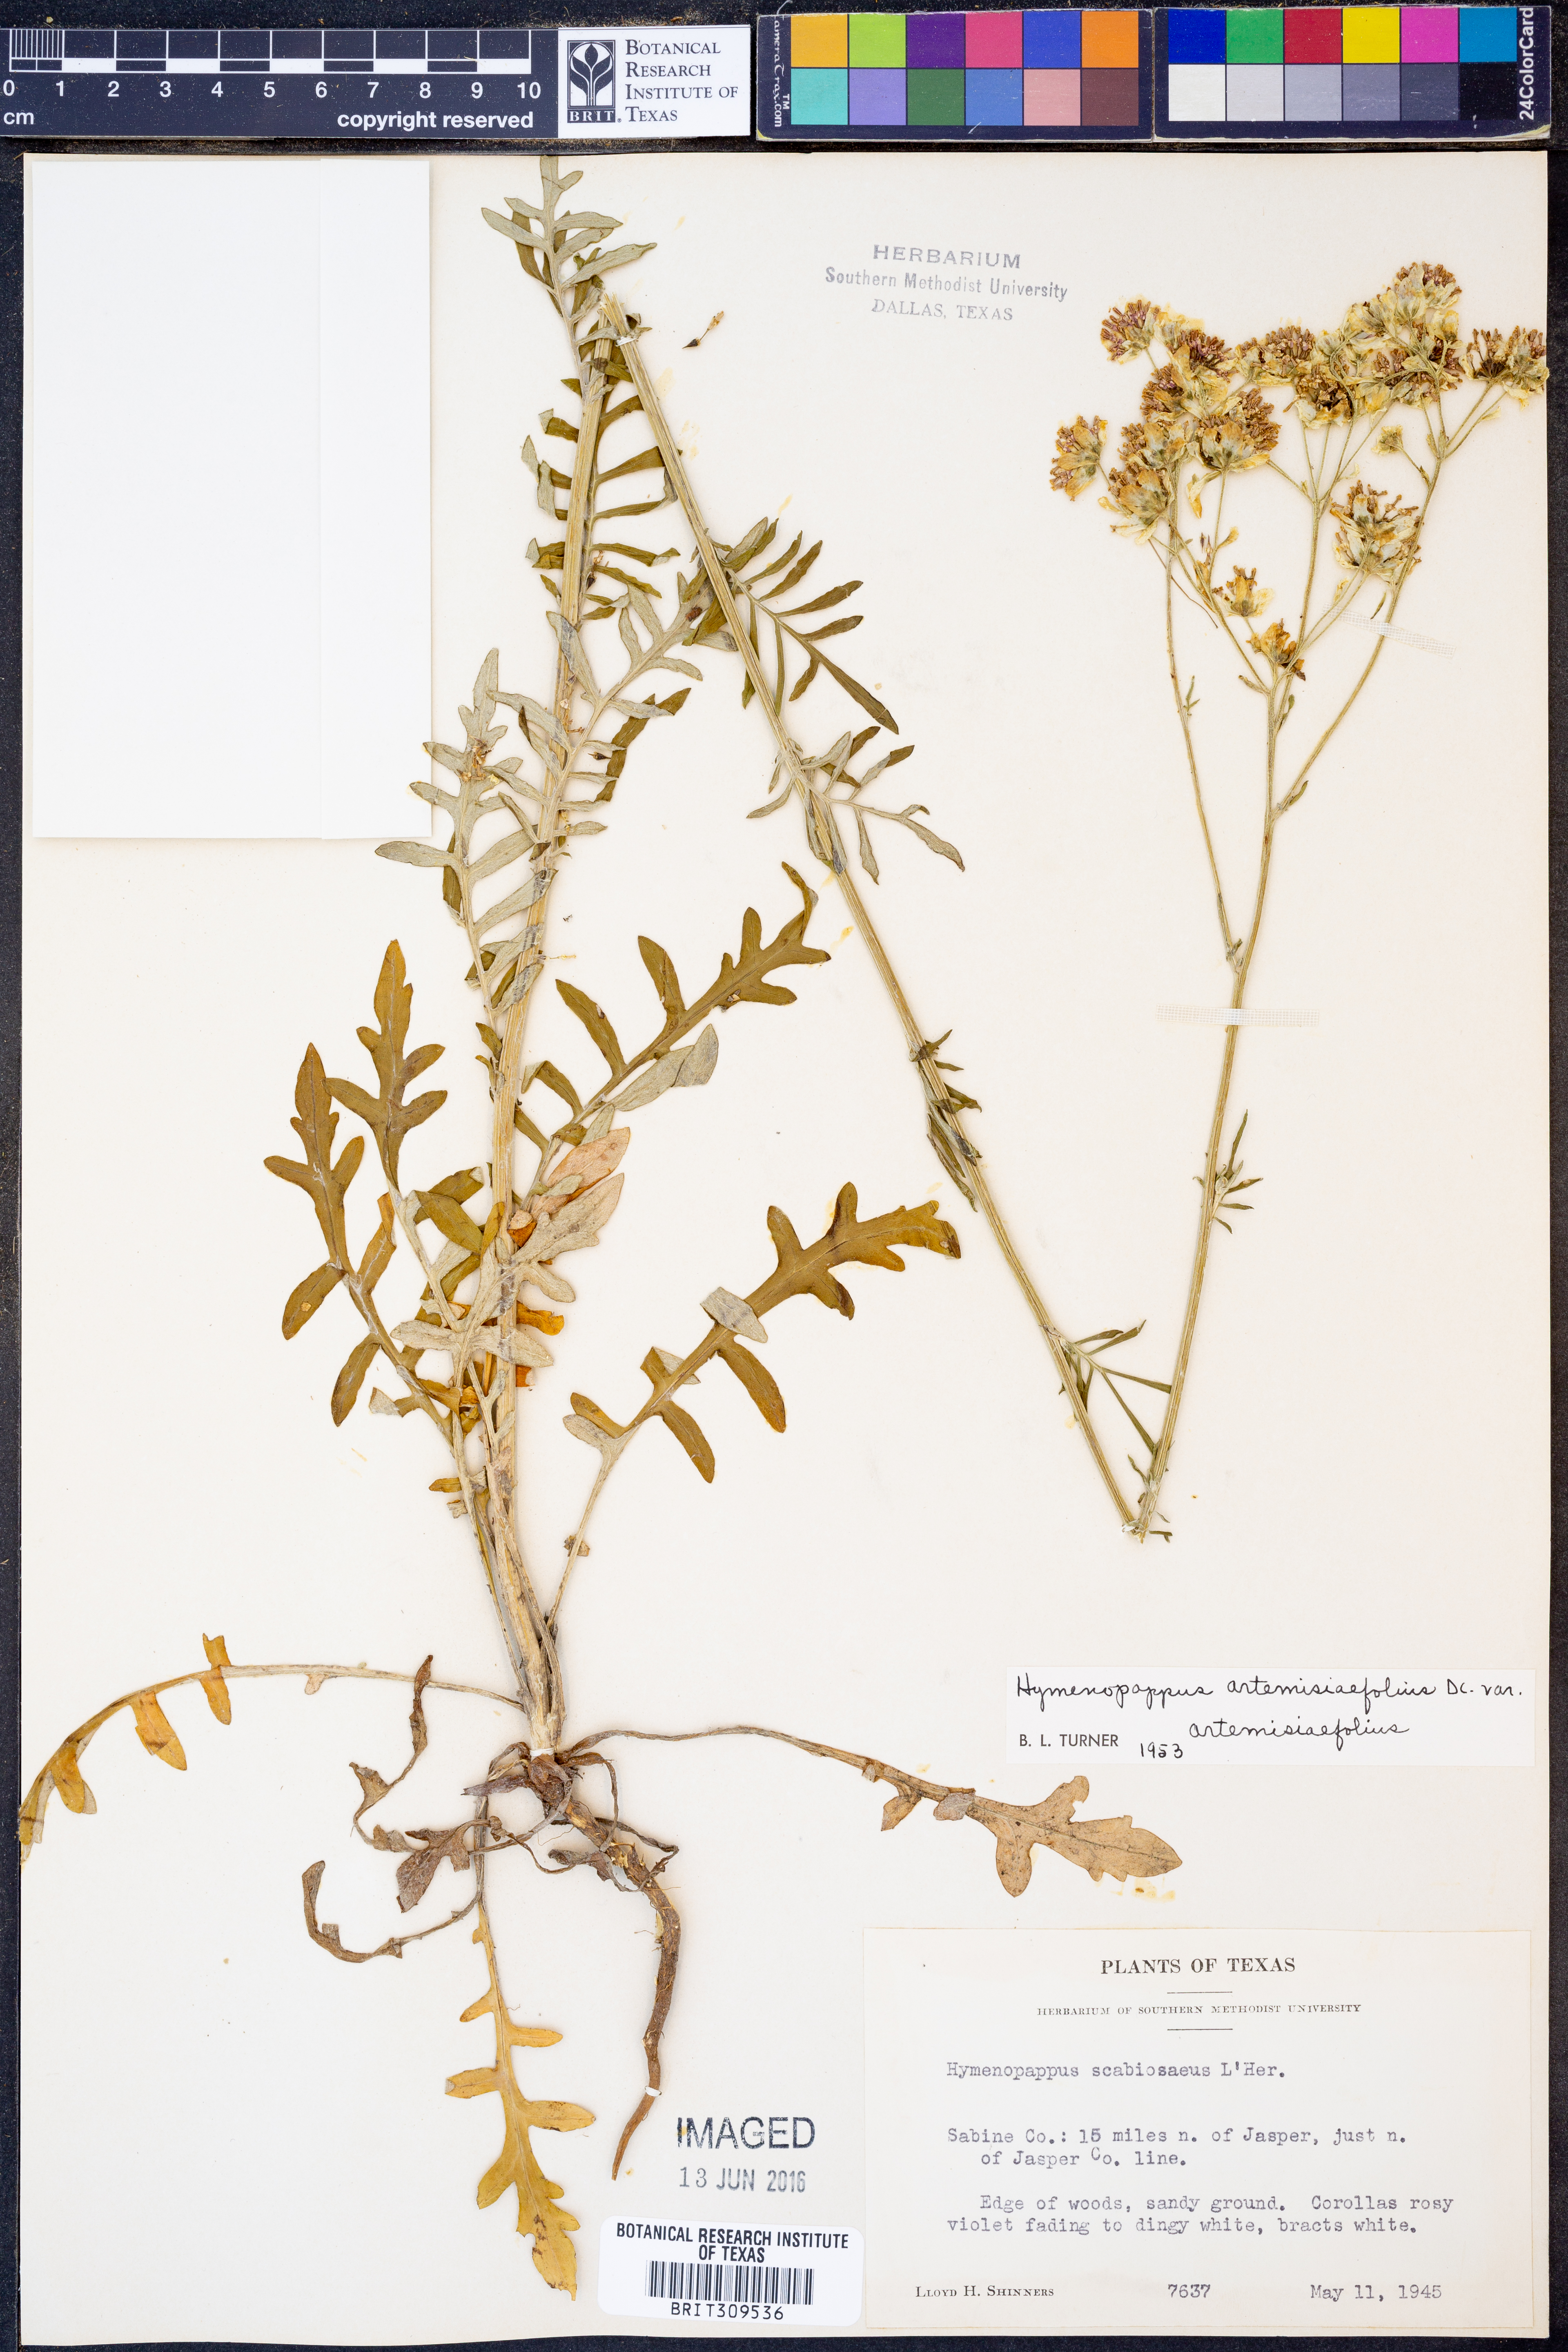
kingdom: Plantae
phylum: Tracheophyta
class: Magnoliopsida
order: Asterales
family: Asteraceae
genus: Hymenopappus
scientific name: Hymenopappus artemisiifolius
